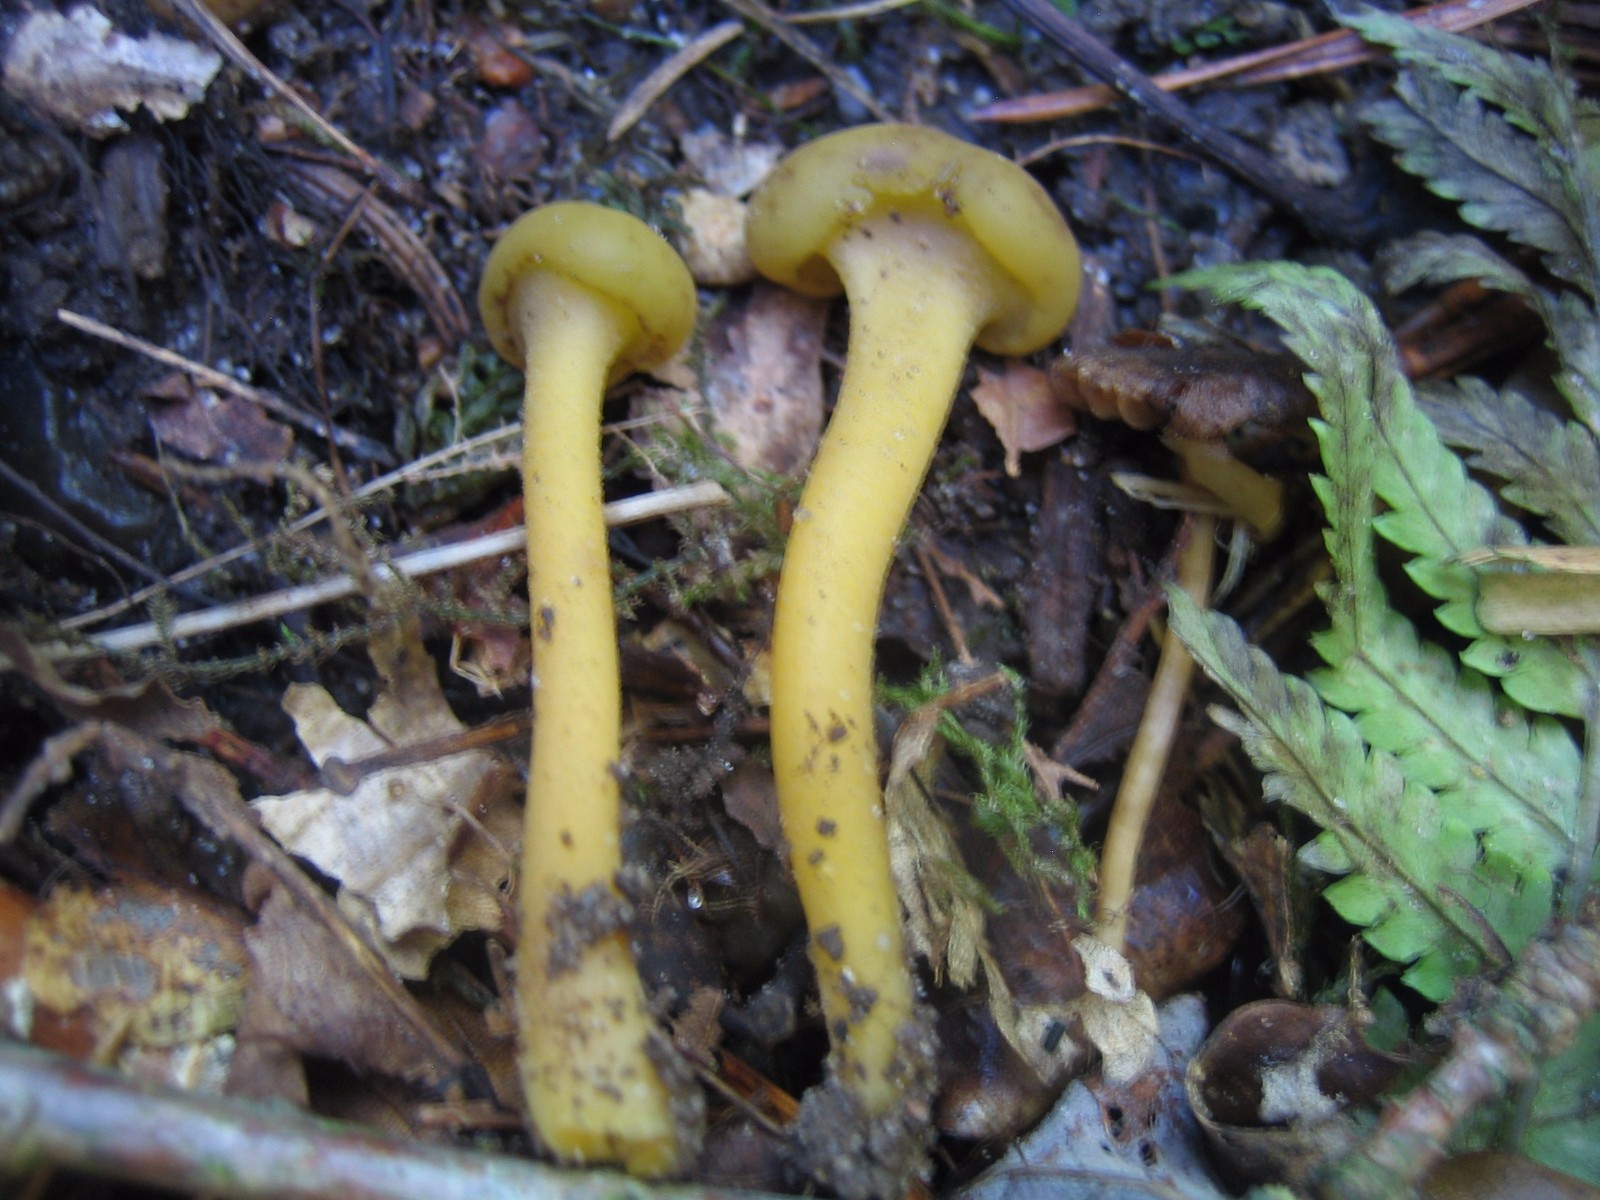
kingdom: Fungi
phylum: Ascomycota
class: Leotiomycetes
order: Leotiales
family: Leotiaceae
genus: Leotia
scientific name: Leotia lubrica
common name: ravsvamp
